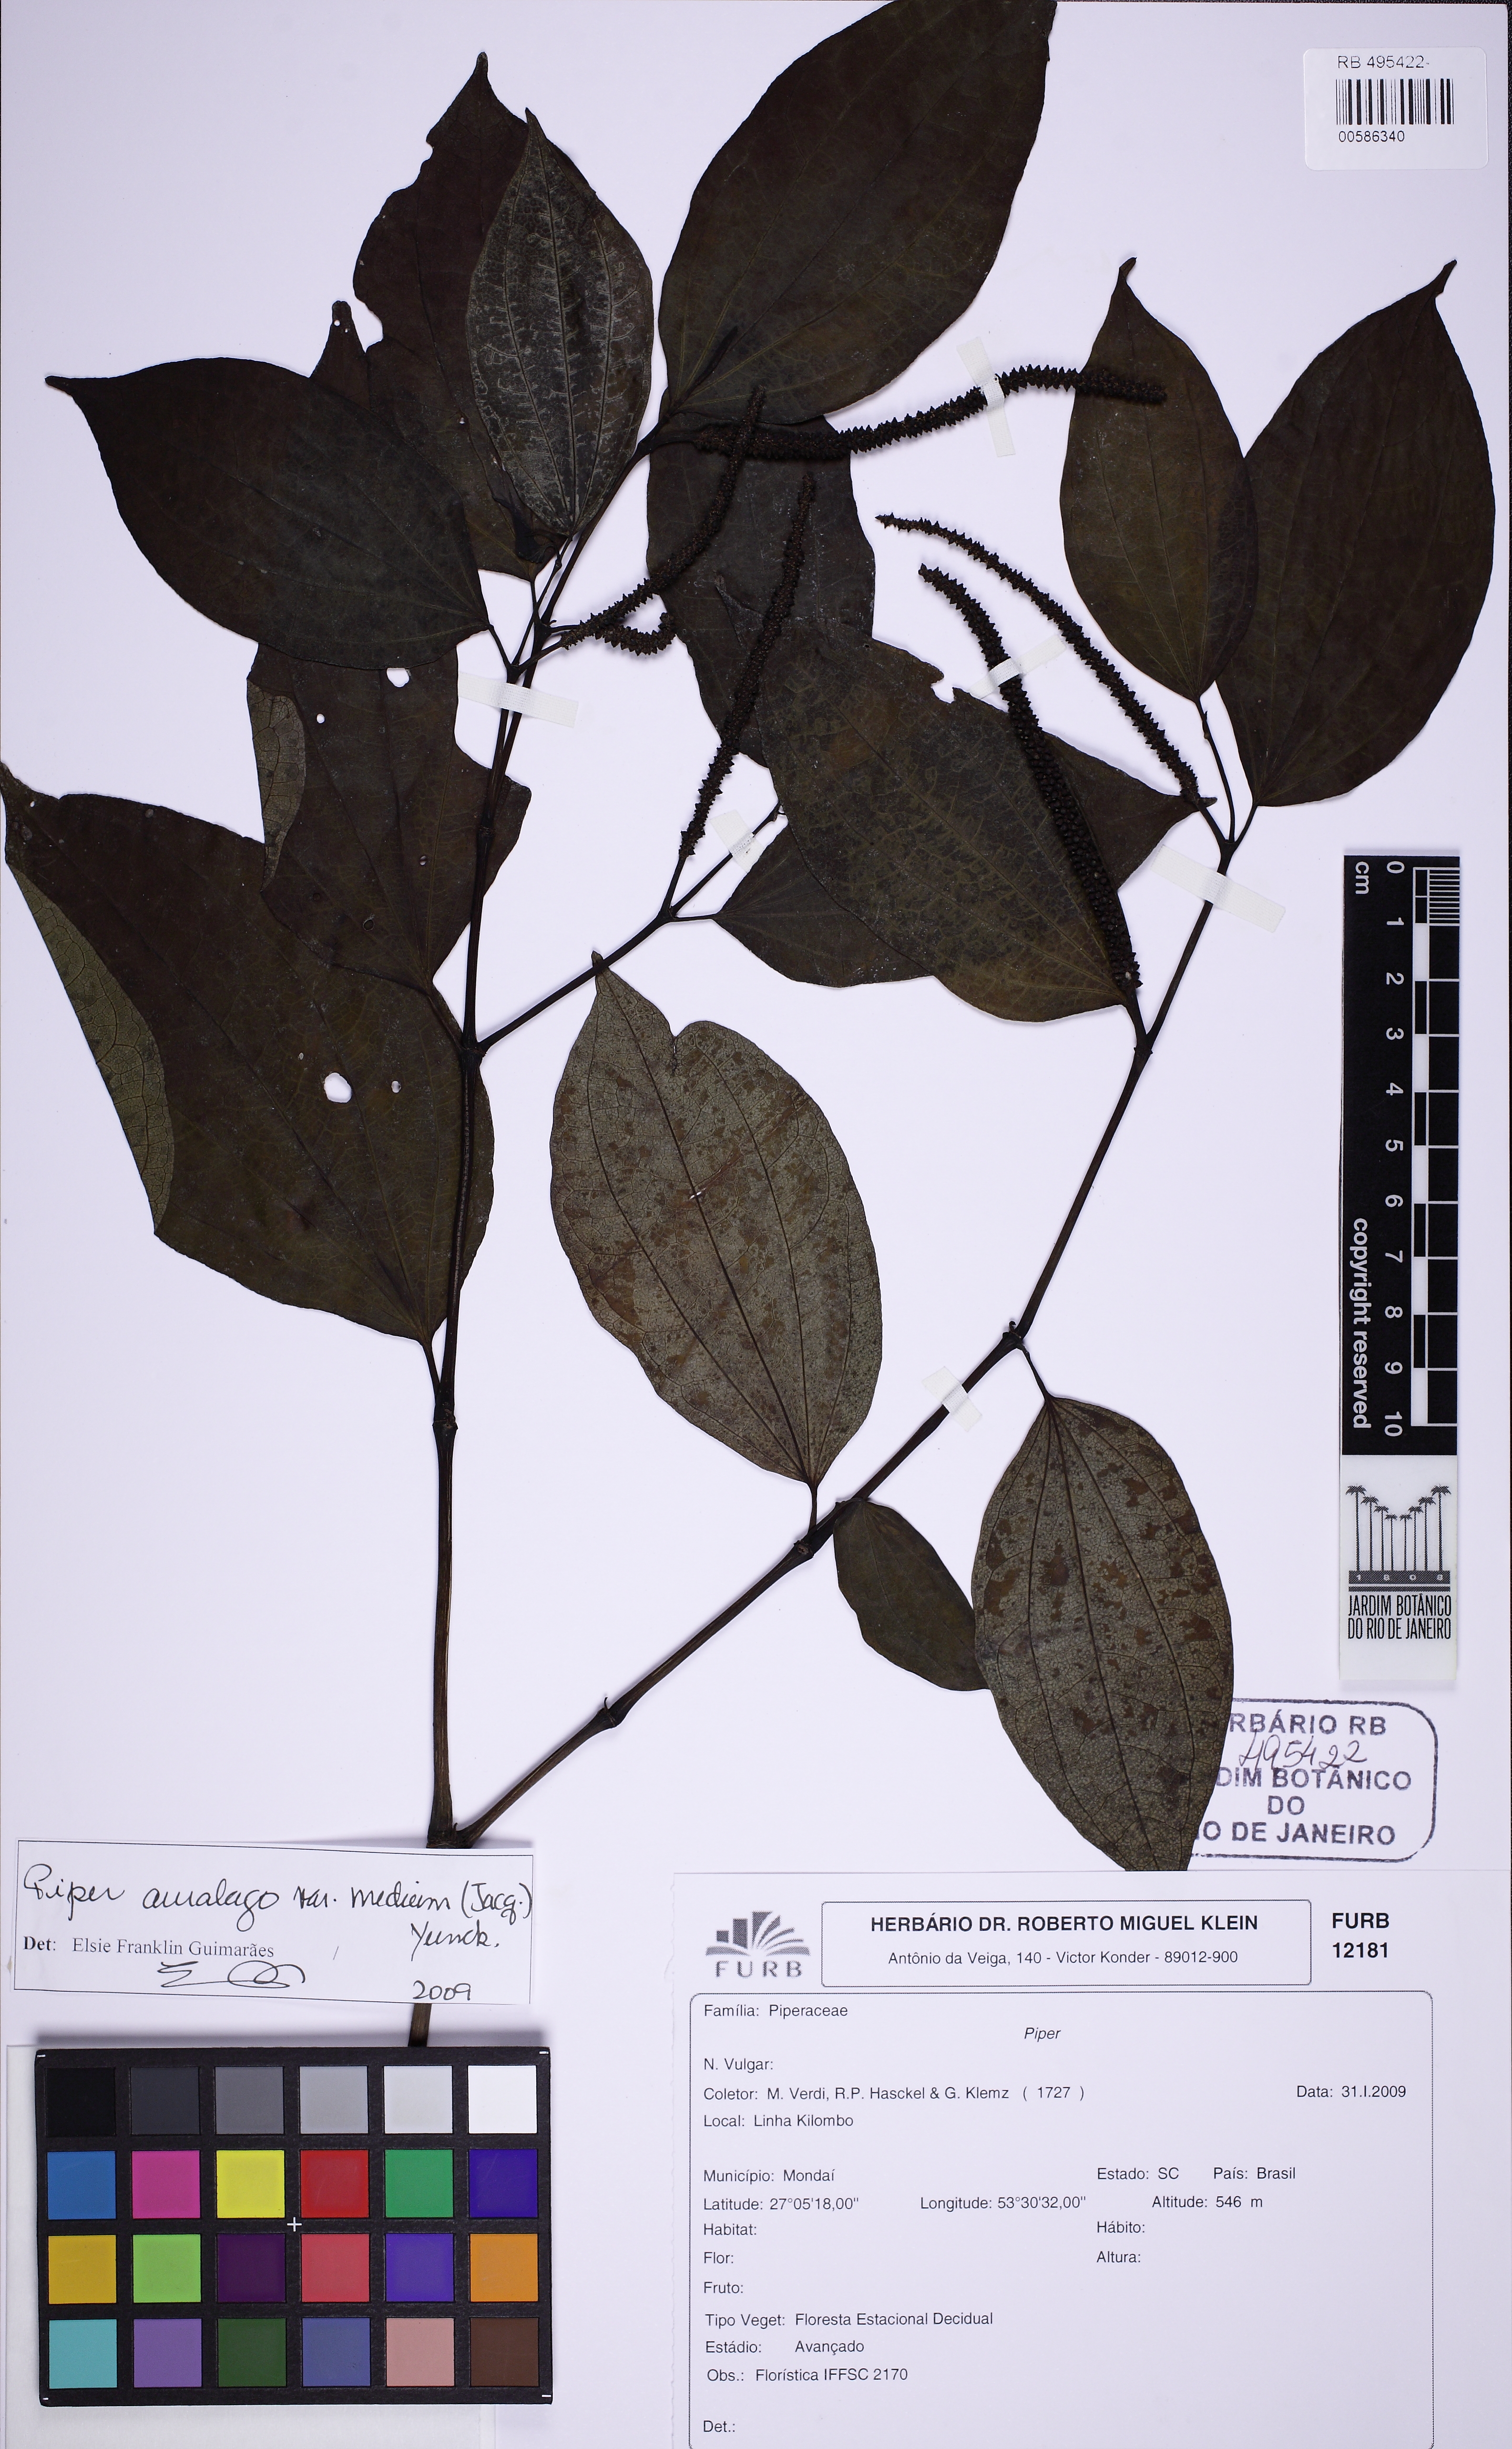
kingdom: Plantae
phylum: Tracheophyta
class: Magnoliopsida
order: Piperales
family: Piperaceae
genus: Piper
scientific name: Piper amalago
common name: Pepper-elder
